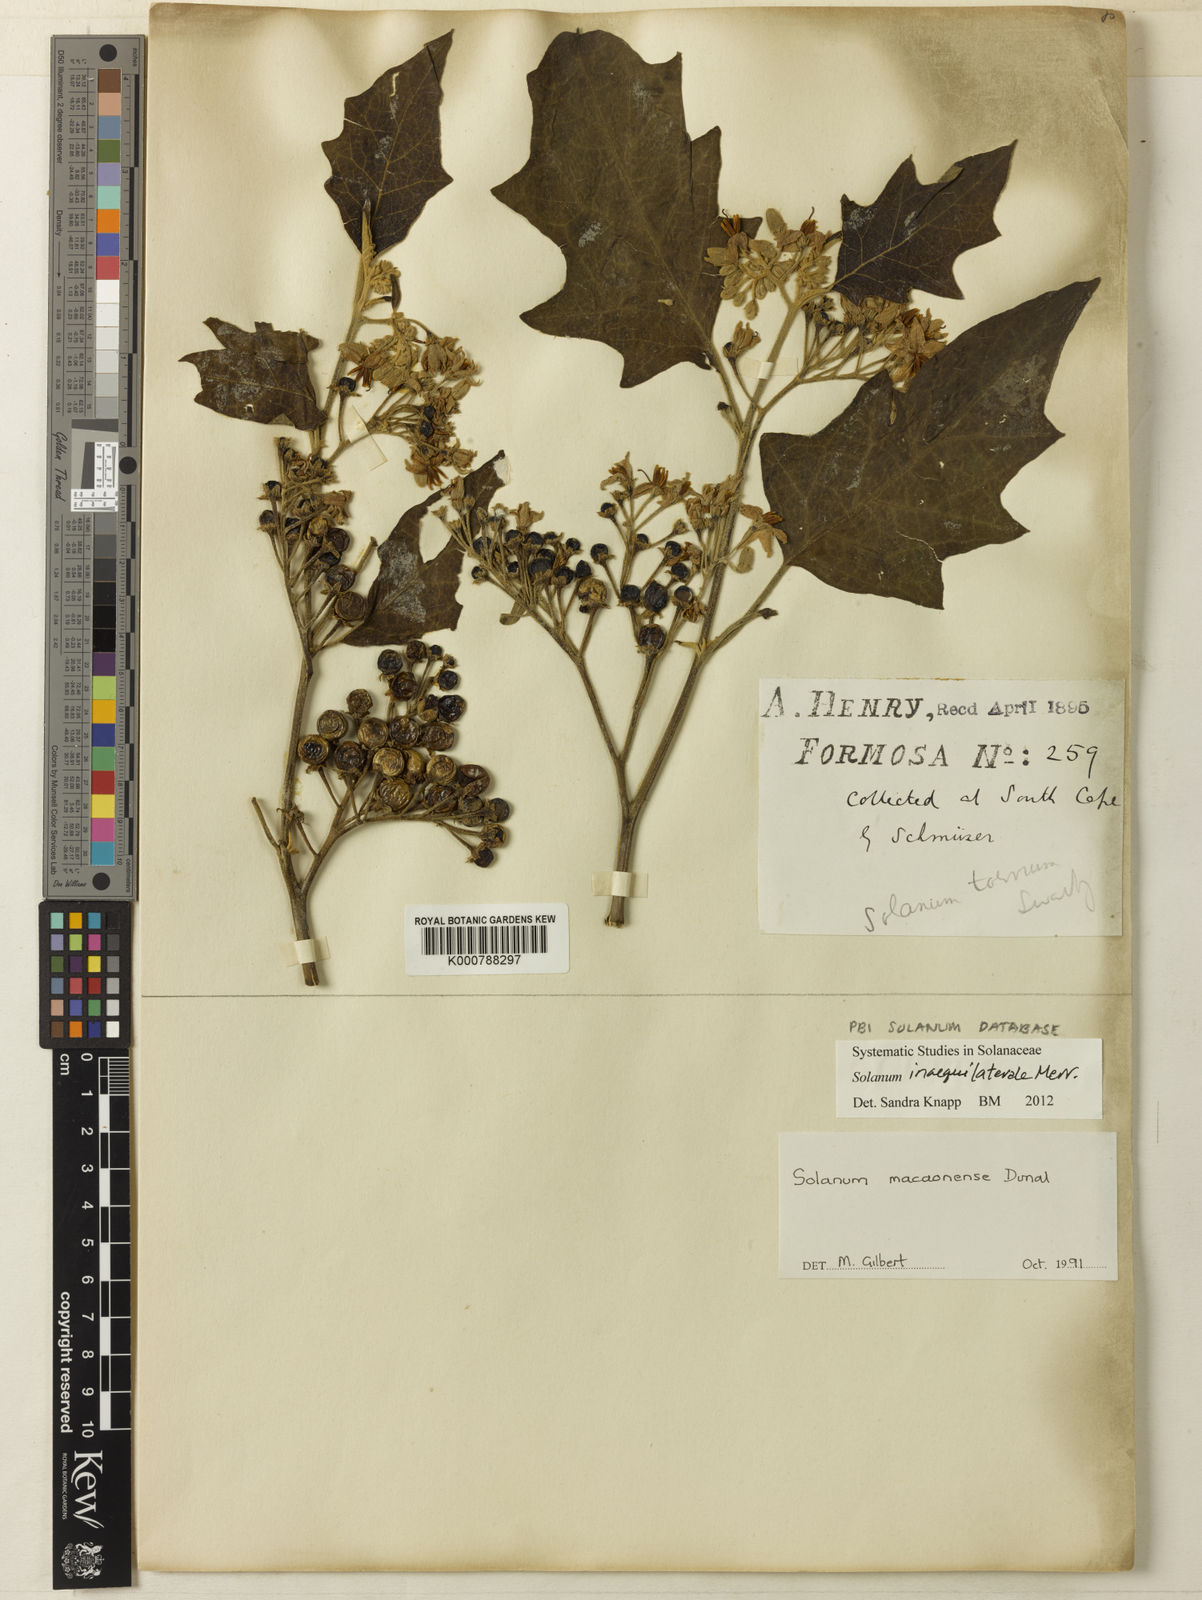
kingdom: Plantae
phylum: Tracheophyta
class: Magnoliopsida
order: Solanales
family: Solanaceae
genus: Solanum
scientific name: Solanum pseudosaponaceum
